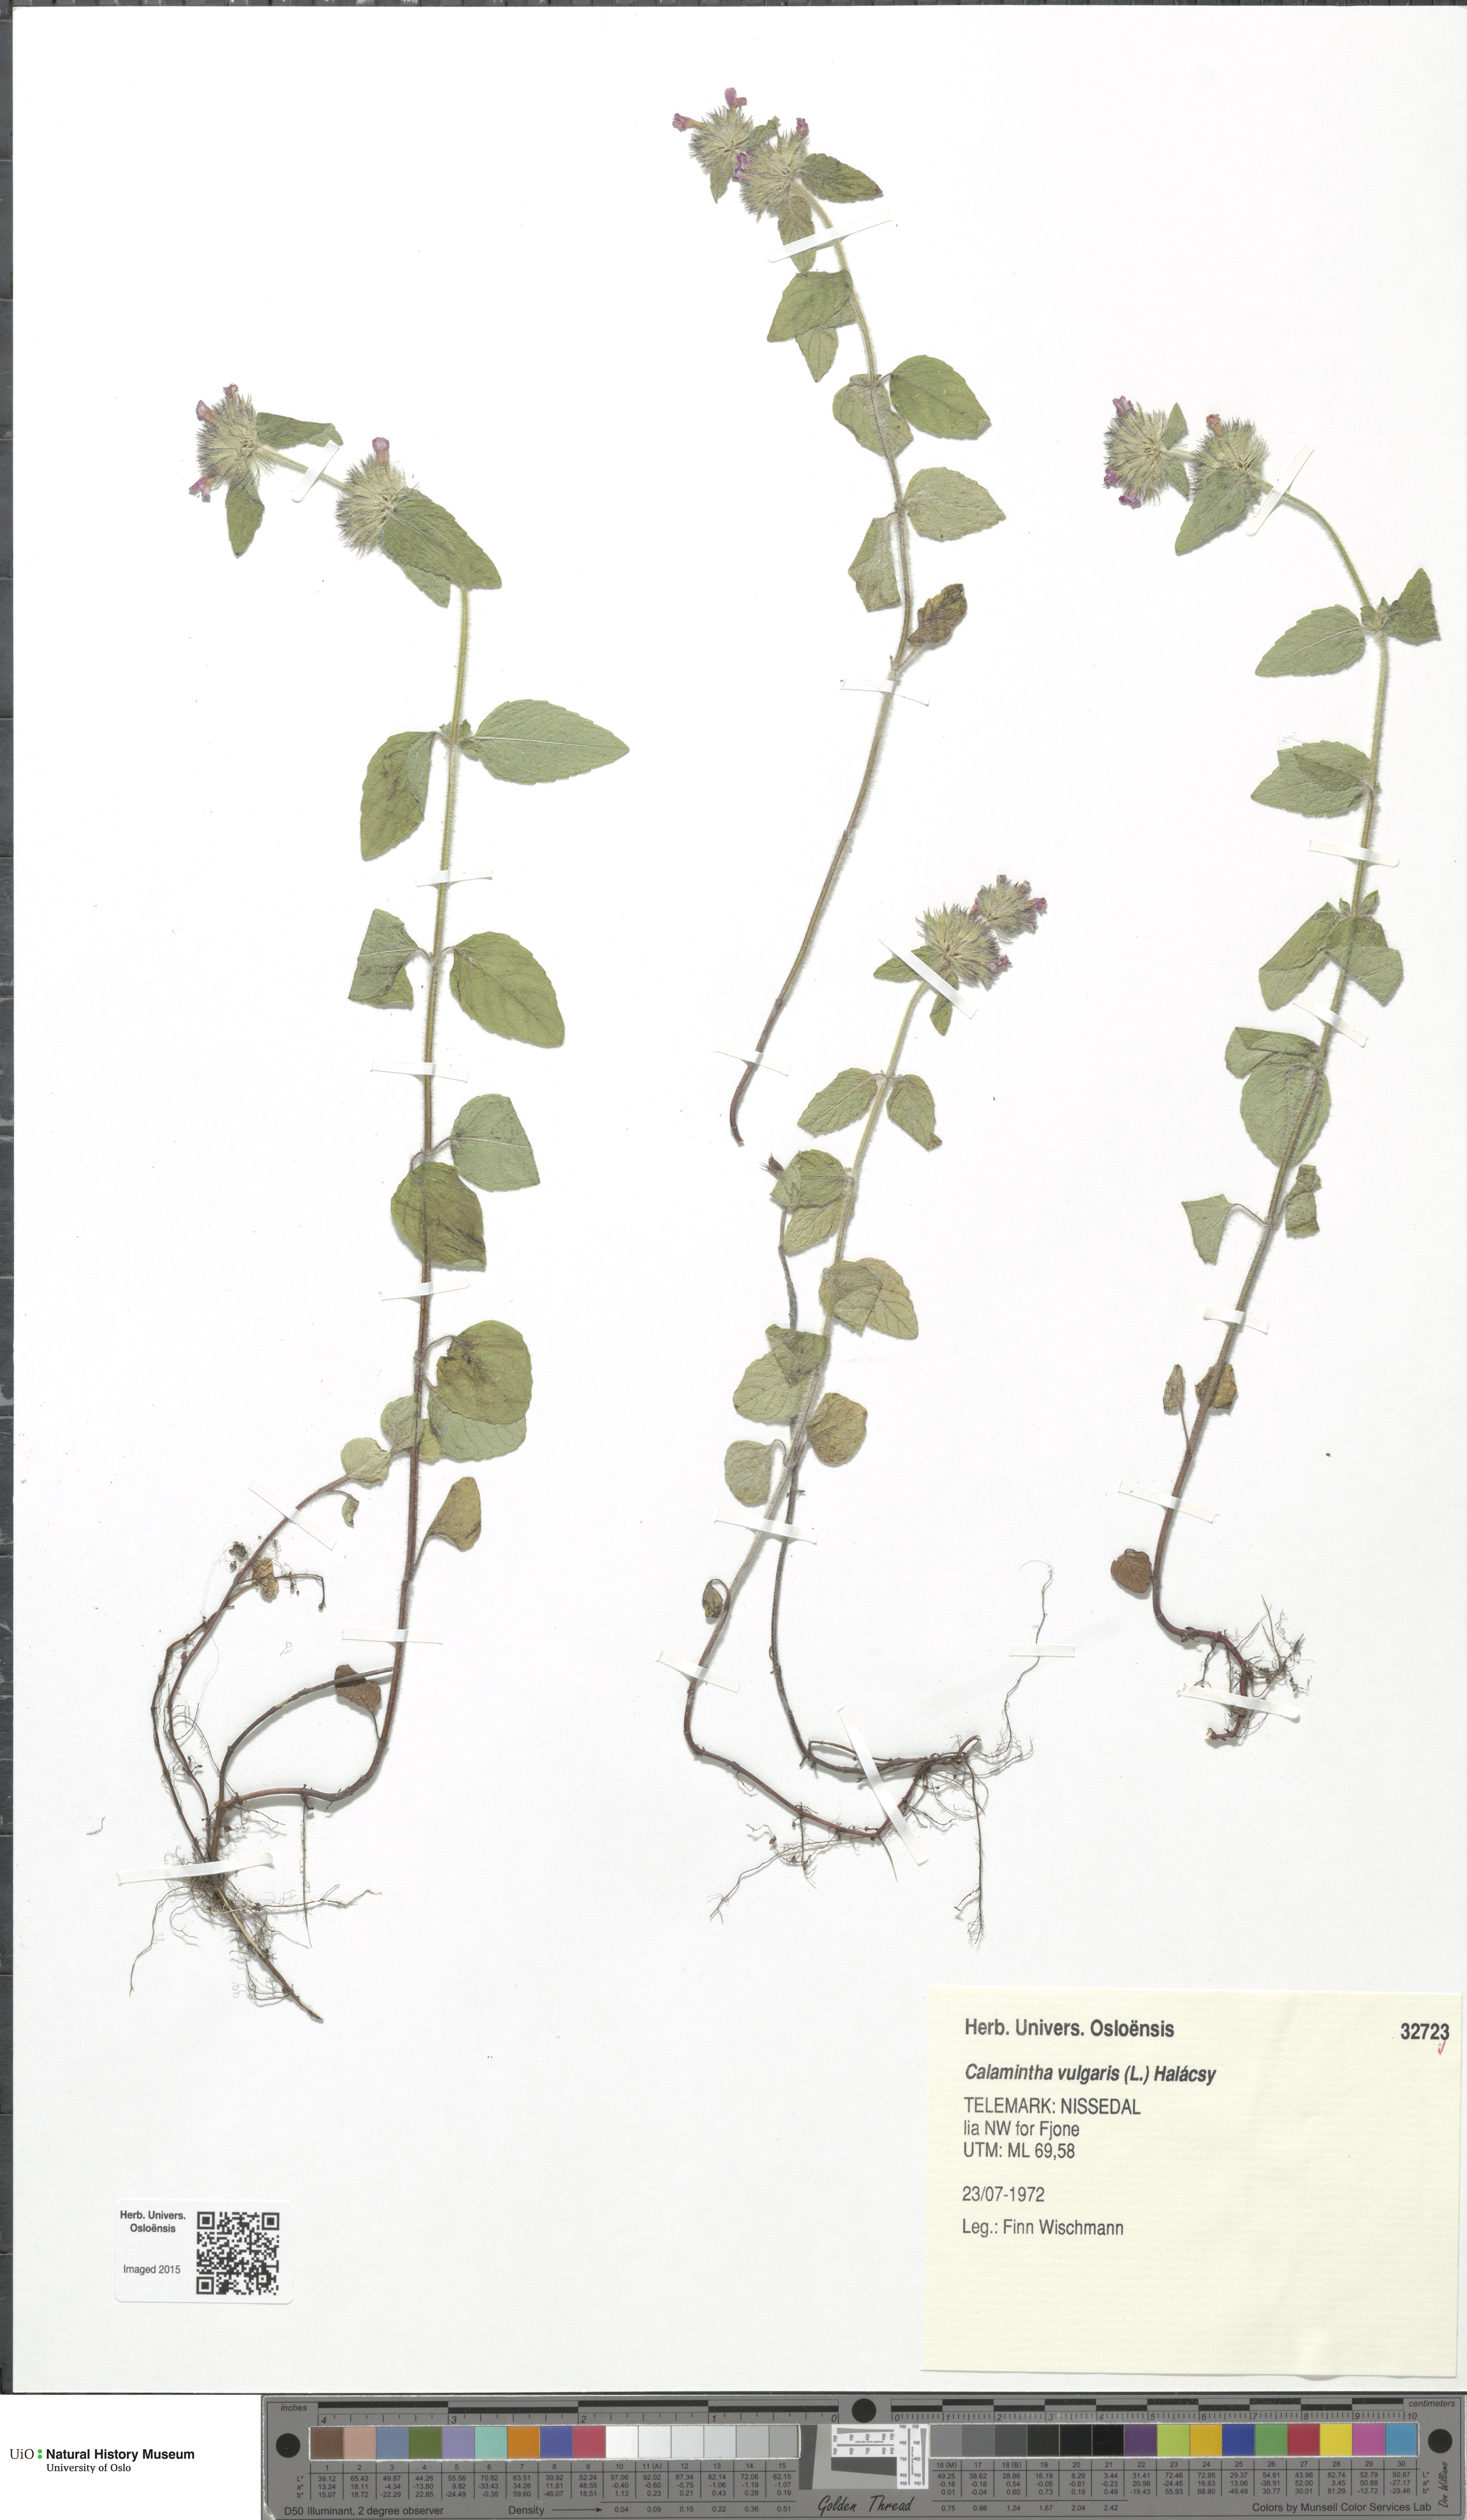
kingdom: Plantae
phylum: Tracheophyta
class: Magnoliopsida
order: Lamiales
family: Lamiaceae
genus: Clinopodium
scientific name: Clinopodium vulgare
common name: Wild basil
